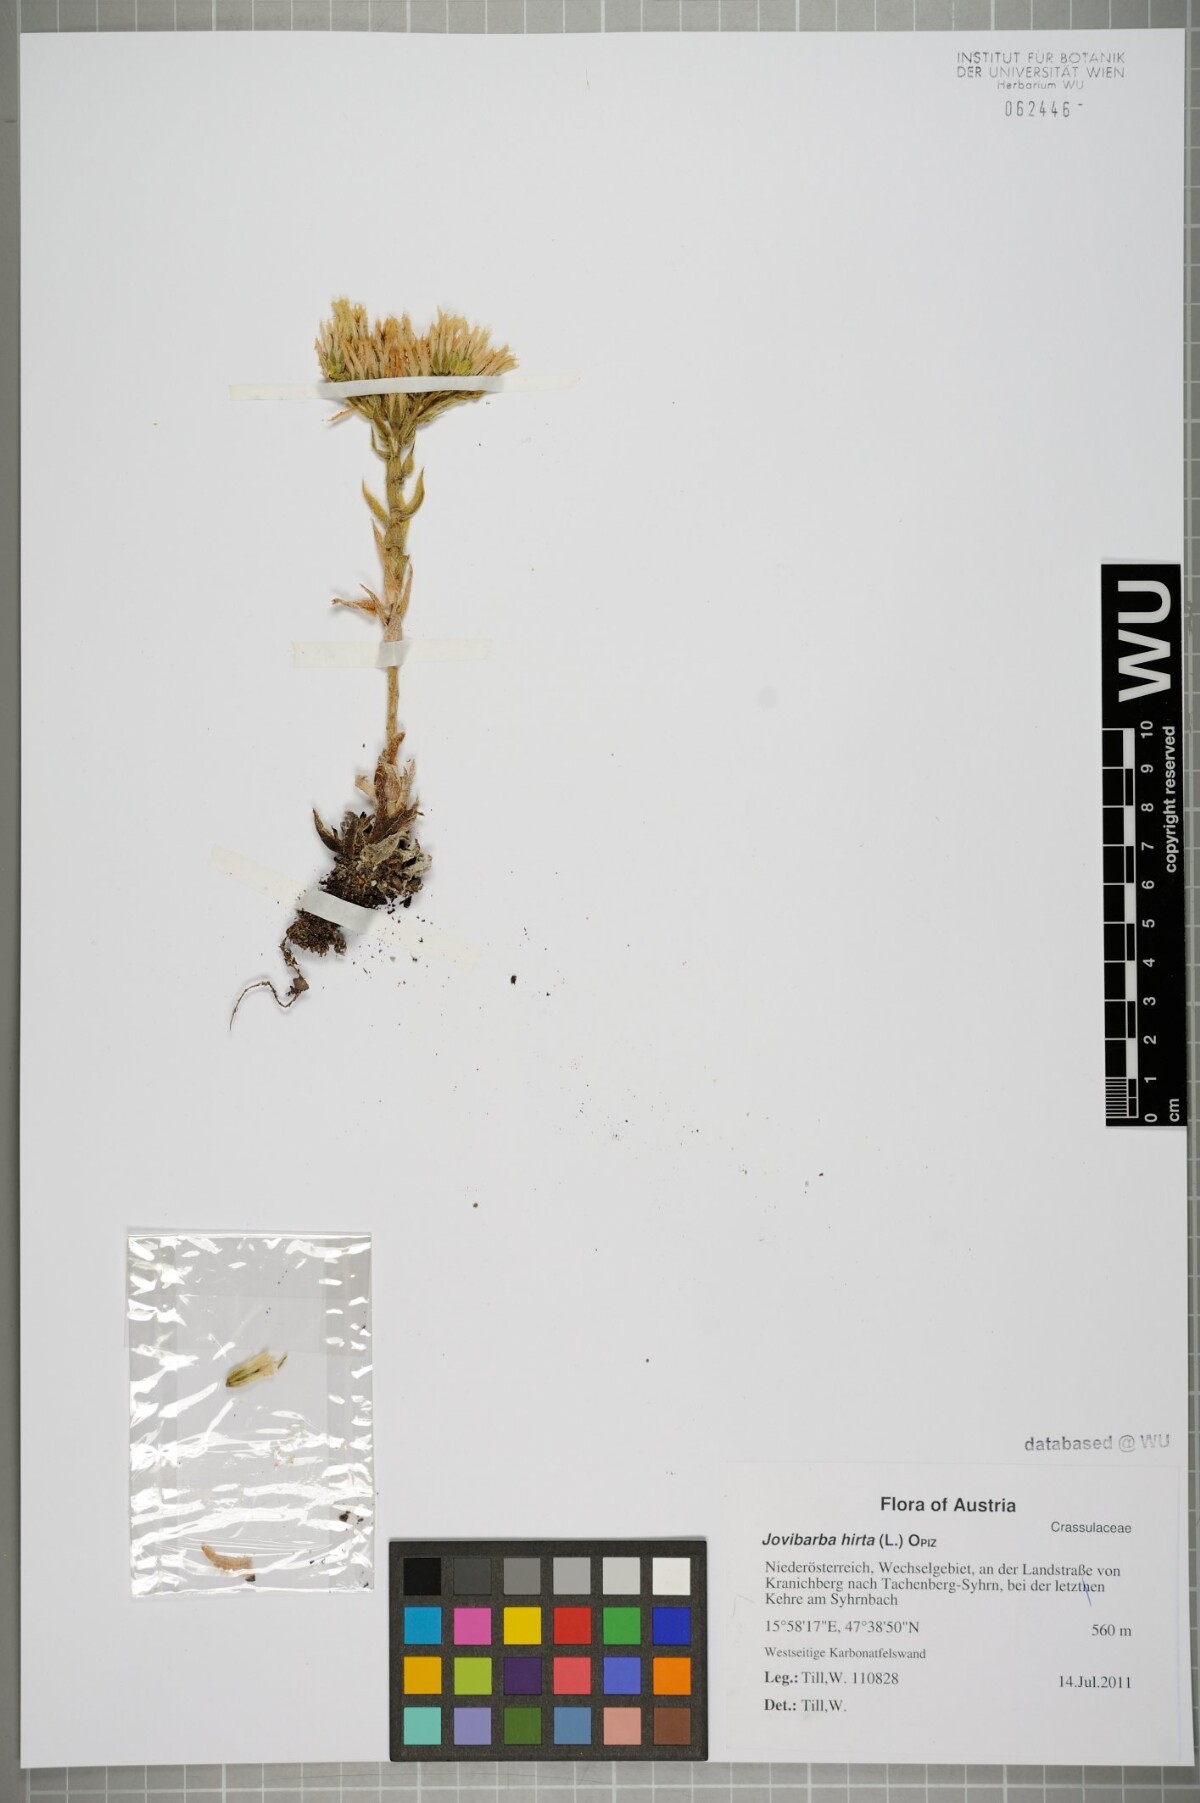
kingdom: Plantae
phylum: Tracheophyta
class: Magnoliopsida
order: Saxifragales
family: Crassulaceae
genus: Sempervivum
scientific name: Sempervivum globiferum
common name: Rolling hen-and-chicks
